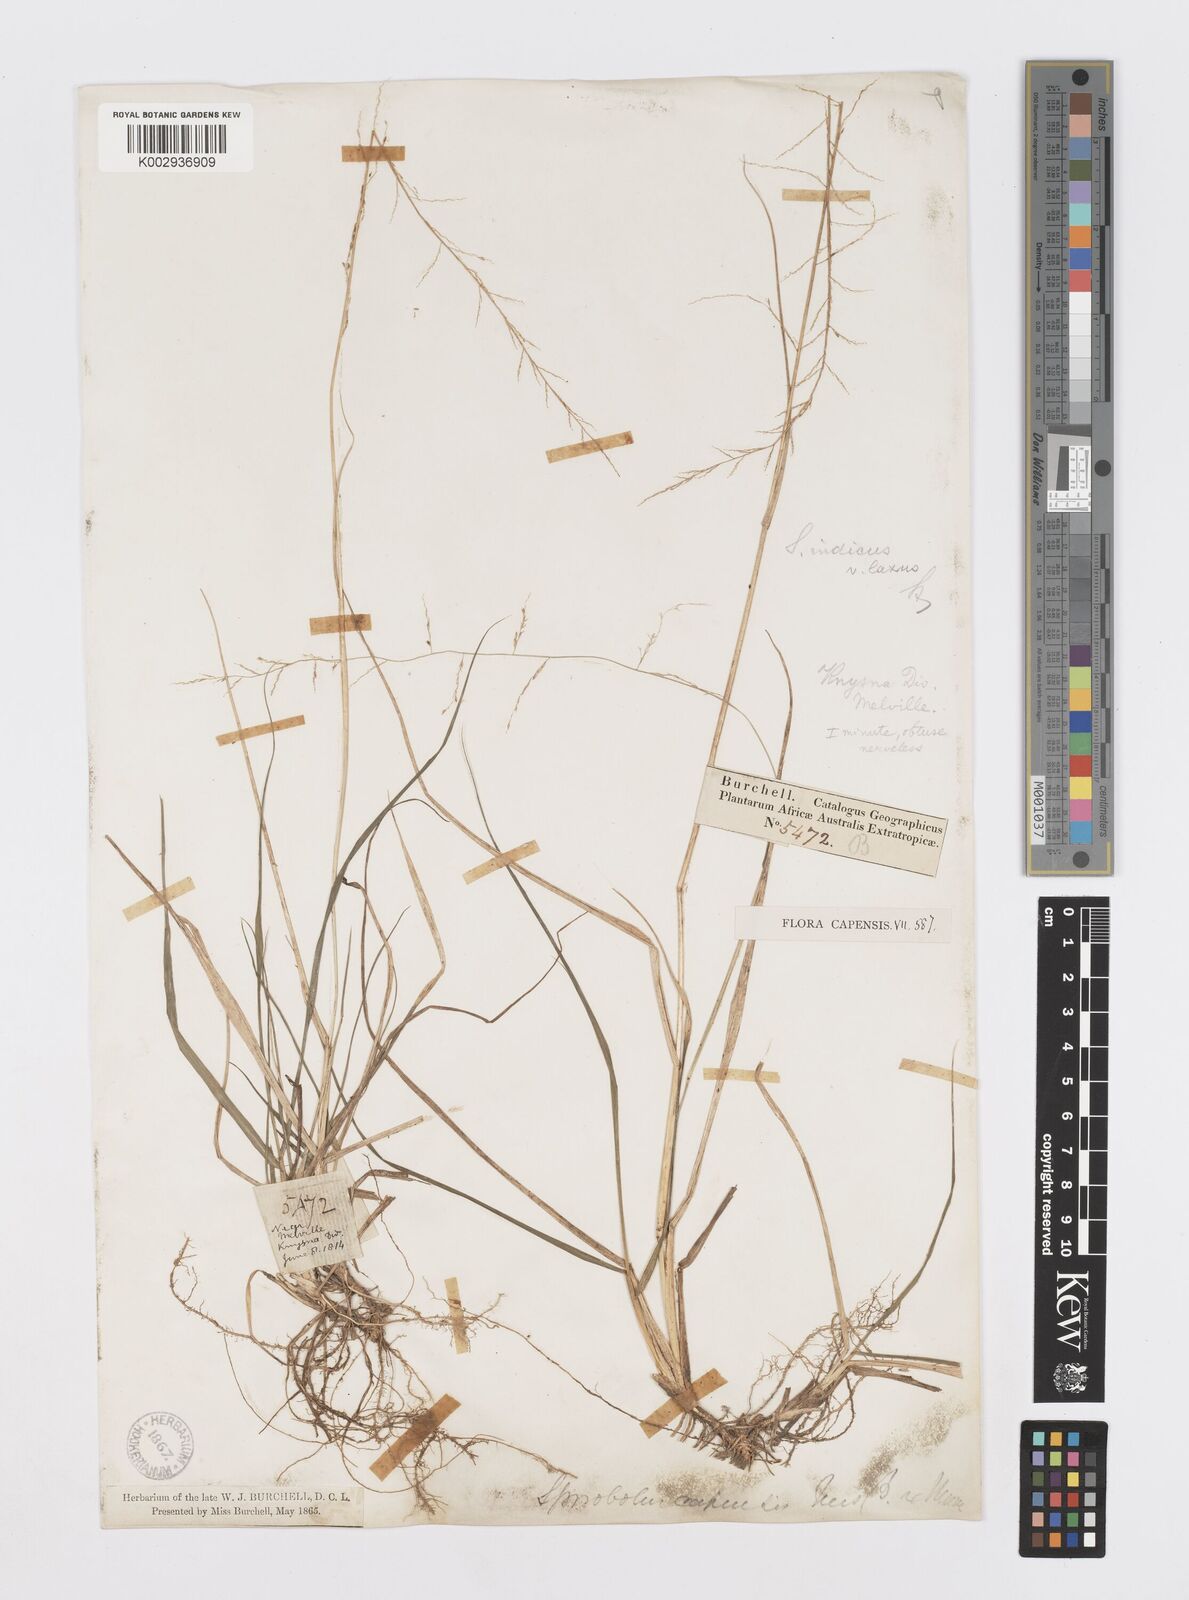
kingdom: Plantae
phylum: Tracheophyta
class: Liliopsida
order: Poales
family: Poaceae
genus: Sporobolus
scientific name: Sporobolus natalensis
